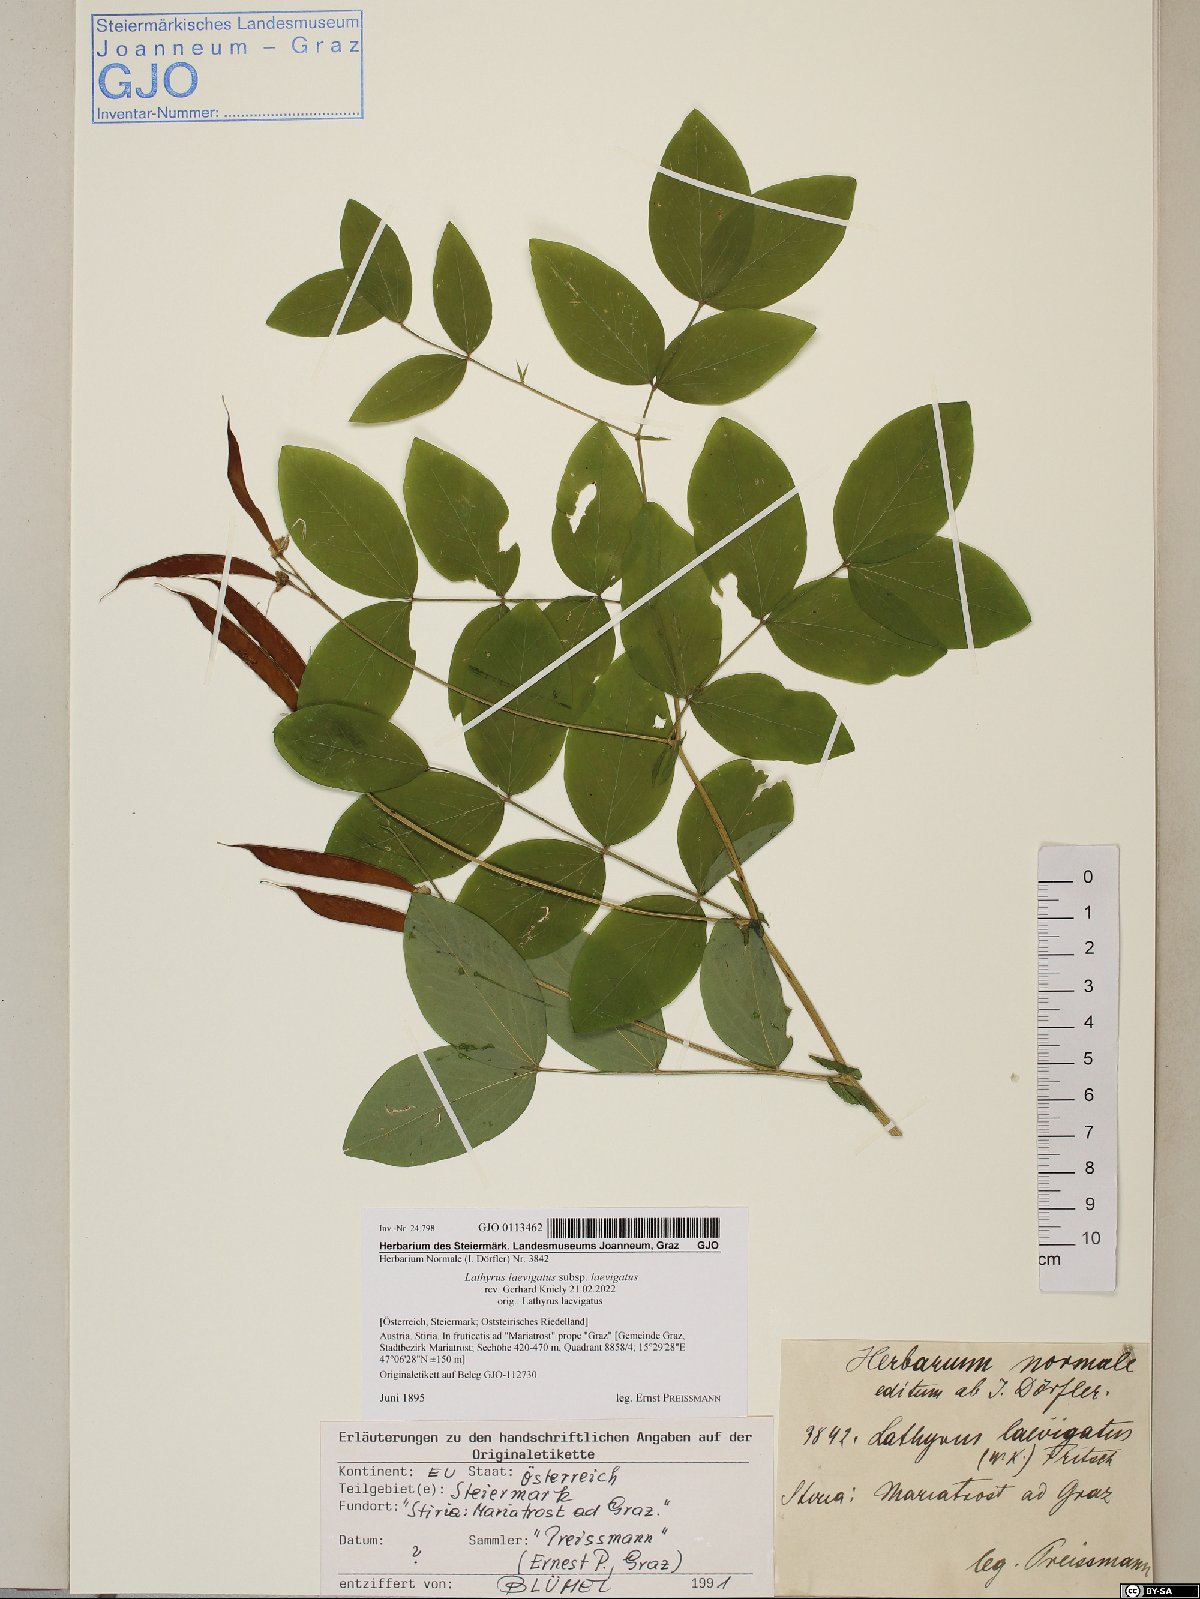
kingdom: Plantae
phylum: Tracheophyta
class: Magnoliopsida
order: Fabales
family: Fabaceae
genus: Lathyrus
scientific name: Lathyrus laevigatus
